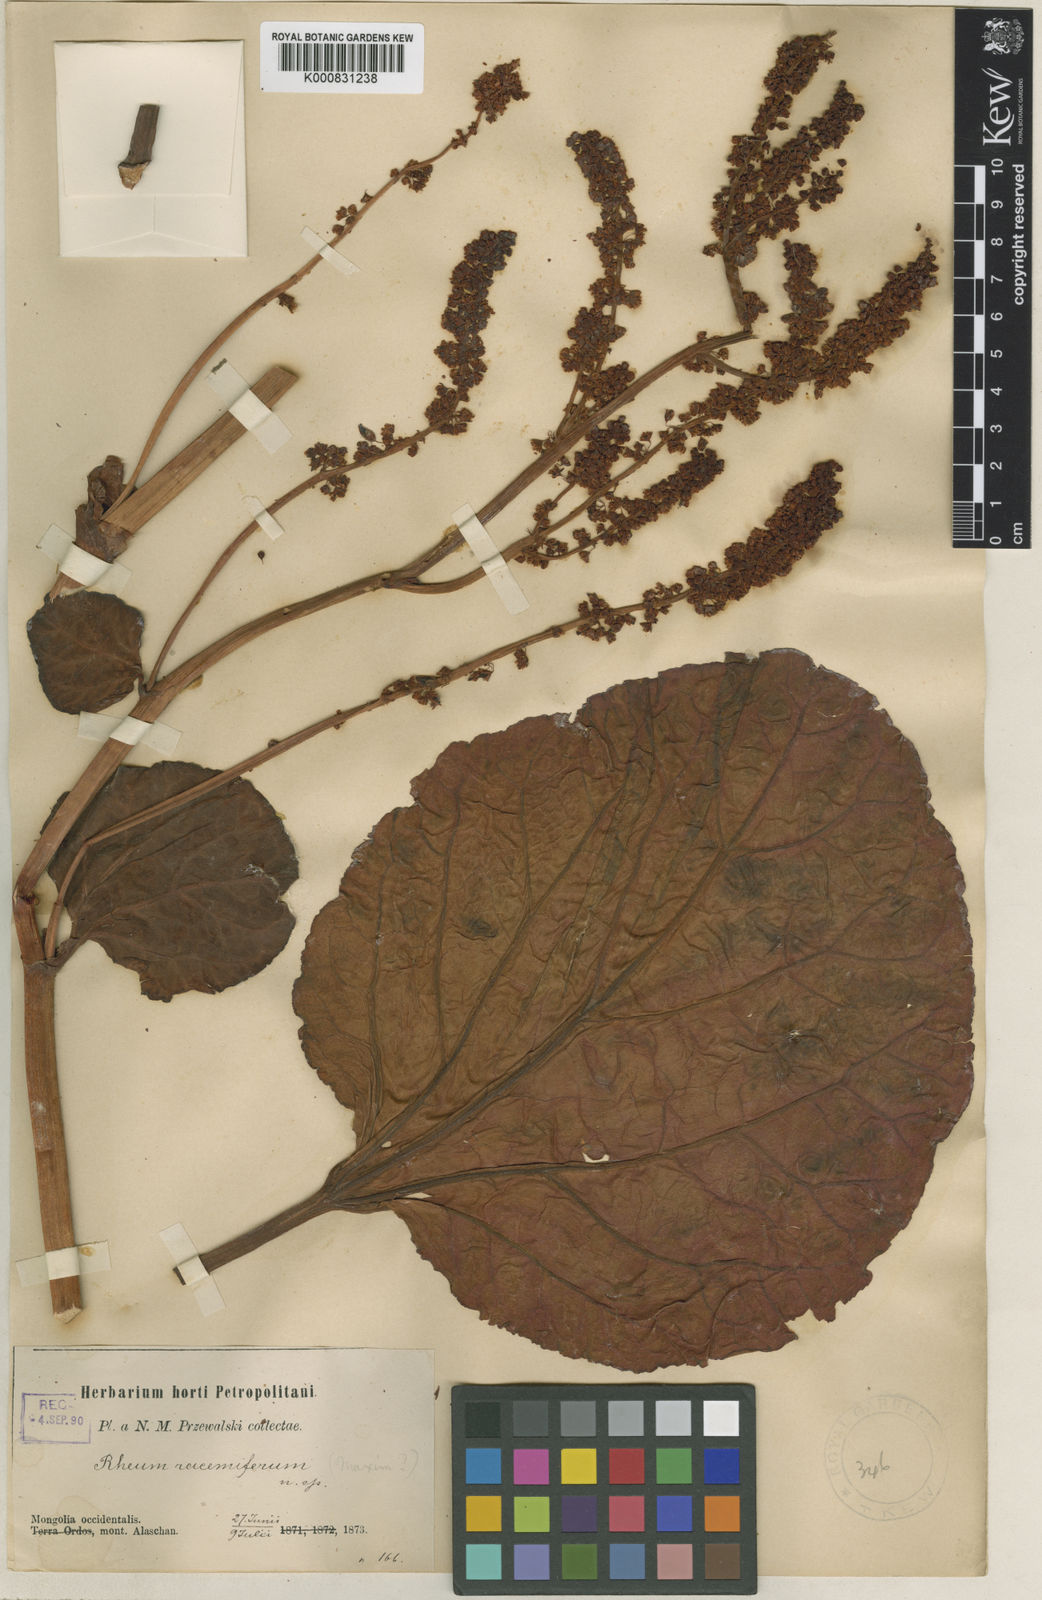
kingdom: Plantae
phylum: Tracheophyta
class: Magnoliopsida
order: Caryophyllales
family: Polygonaceae
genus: Rheum
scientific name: Rheum racemiferum
